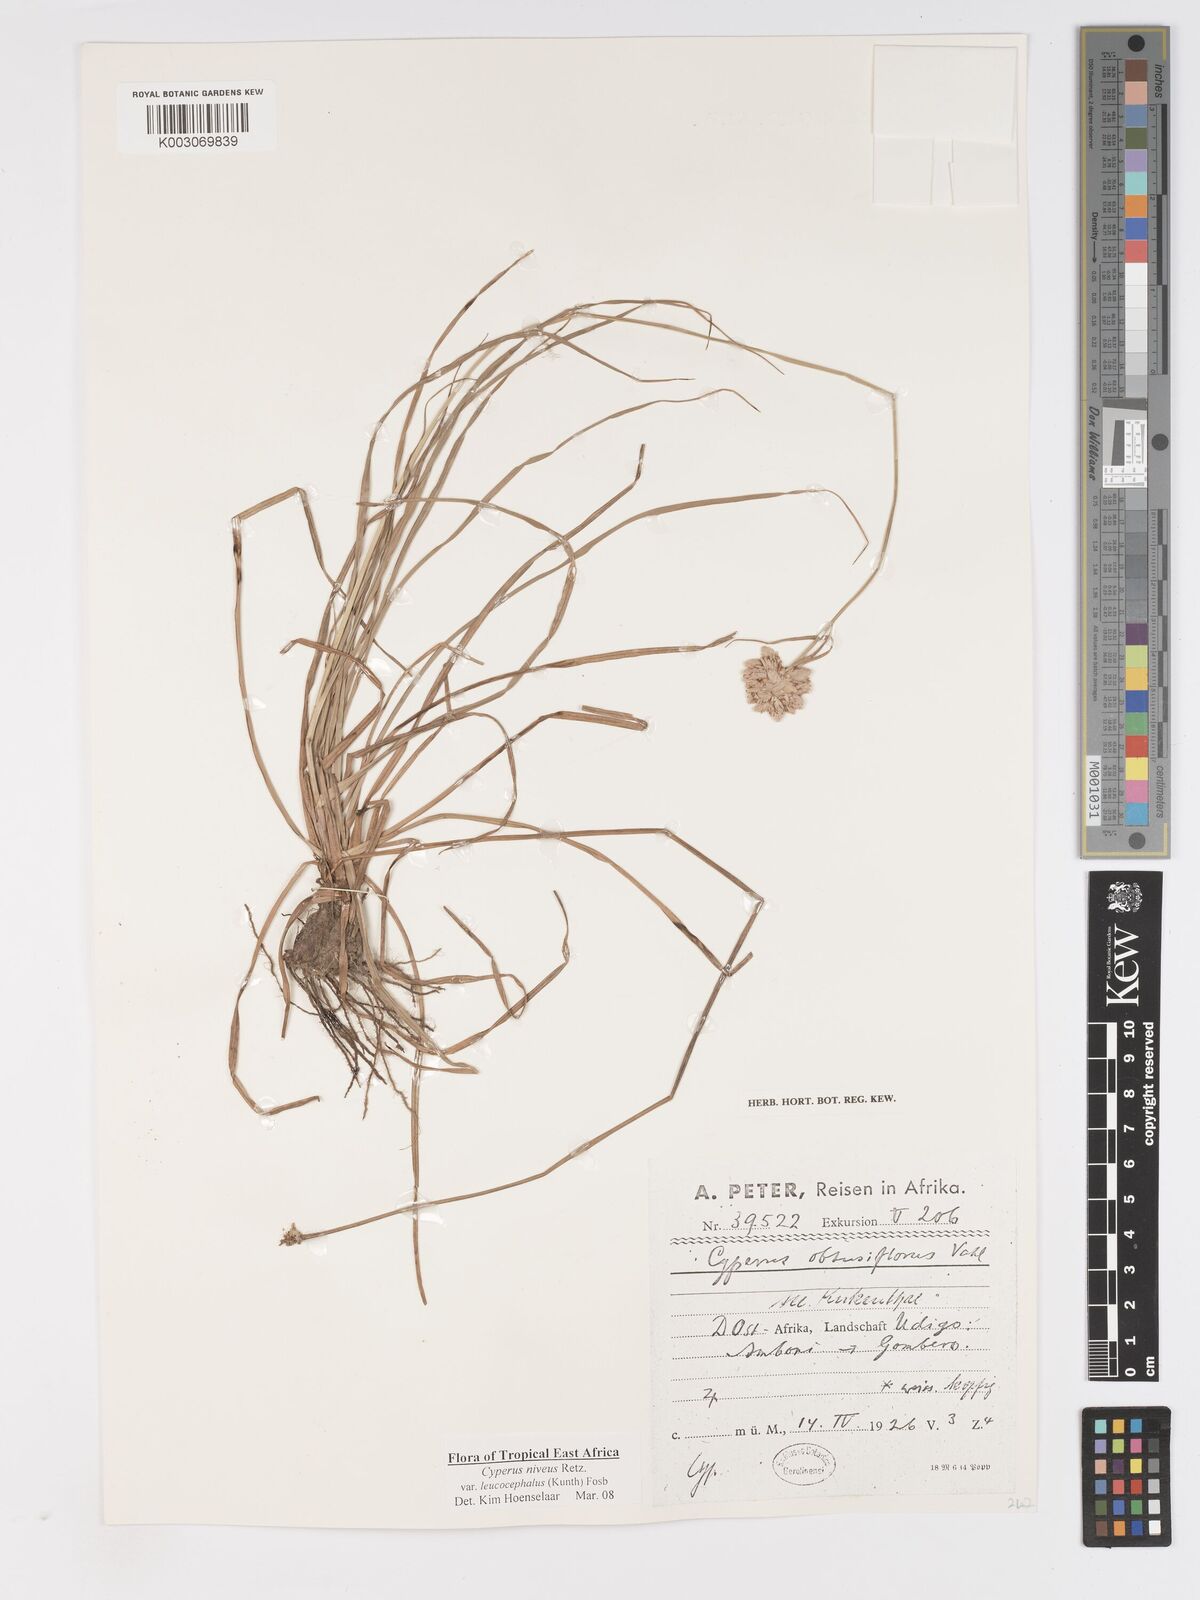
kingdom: Plantae
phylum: Tracheophyta
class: Liliopsida
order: Poales
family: Cyperaceae
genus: Cyperus
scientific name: Cyperus niveus
